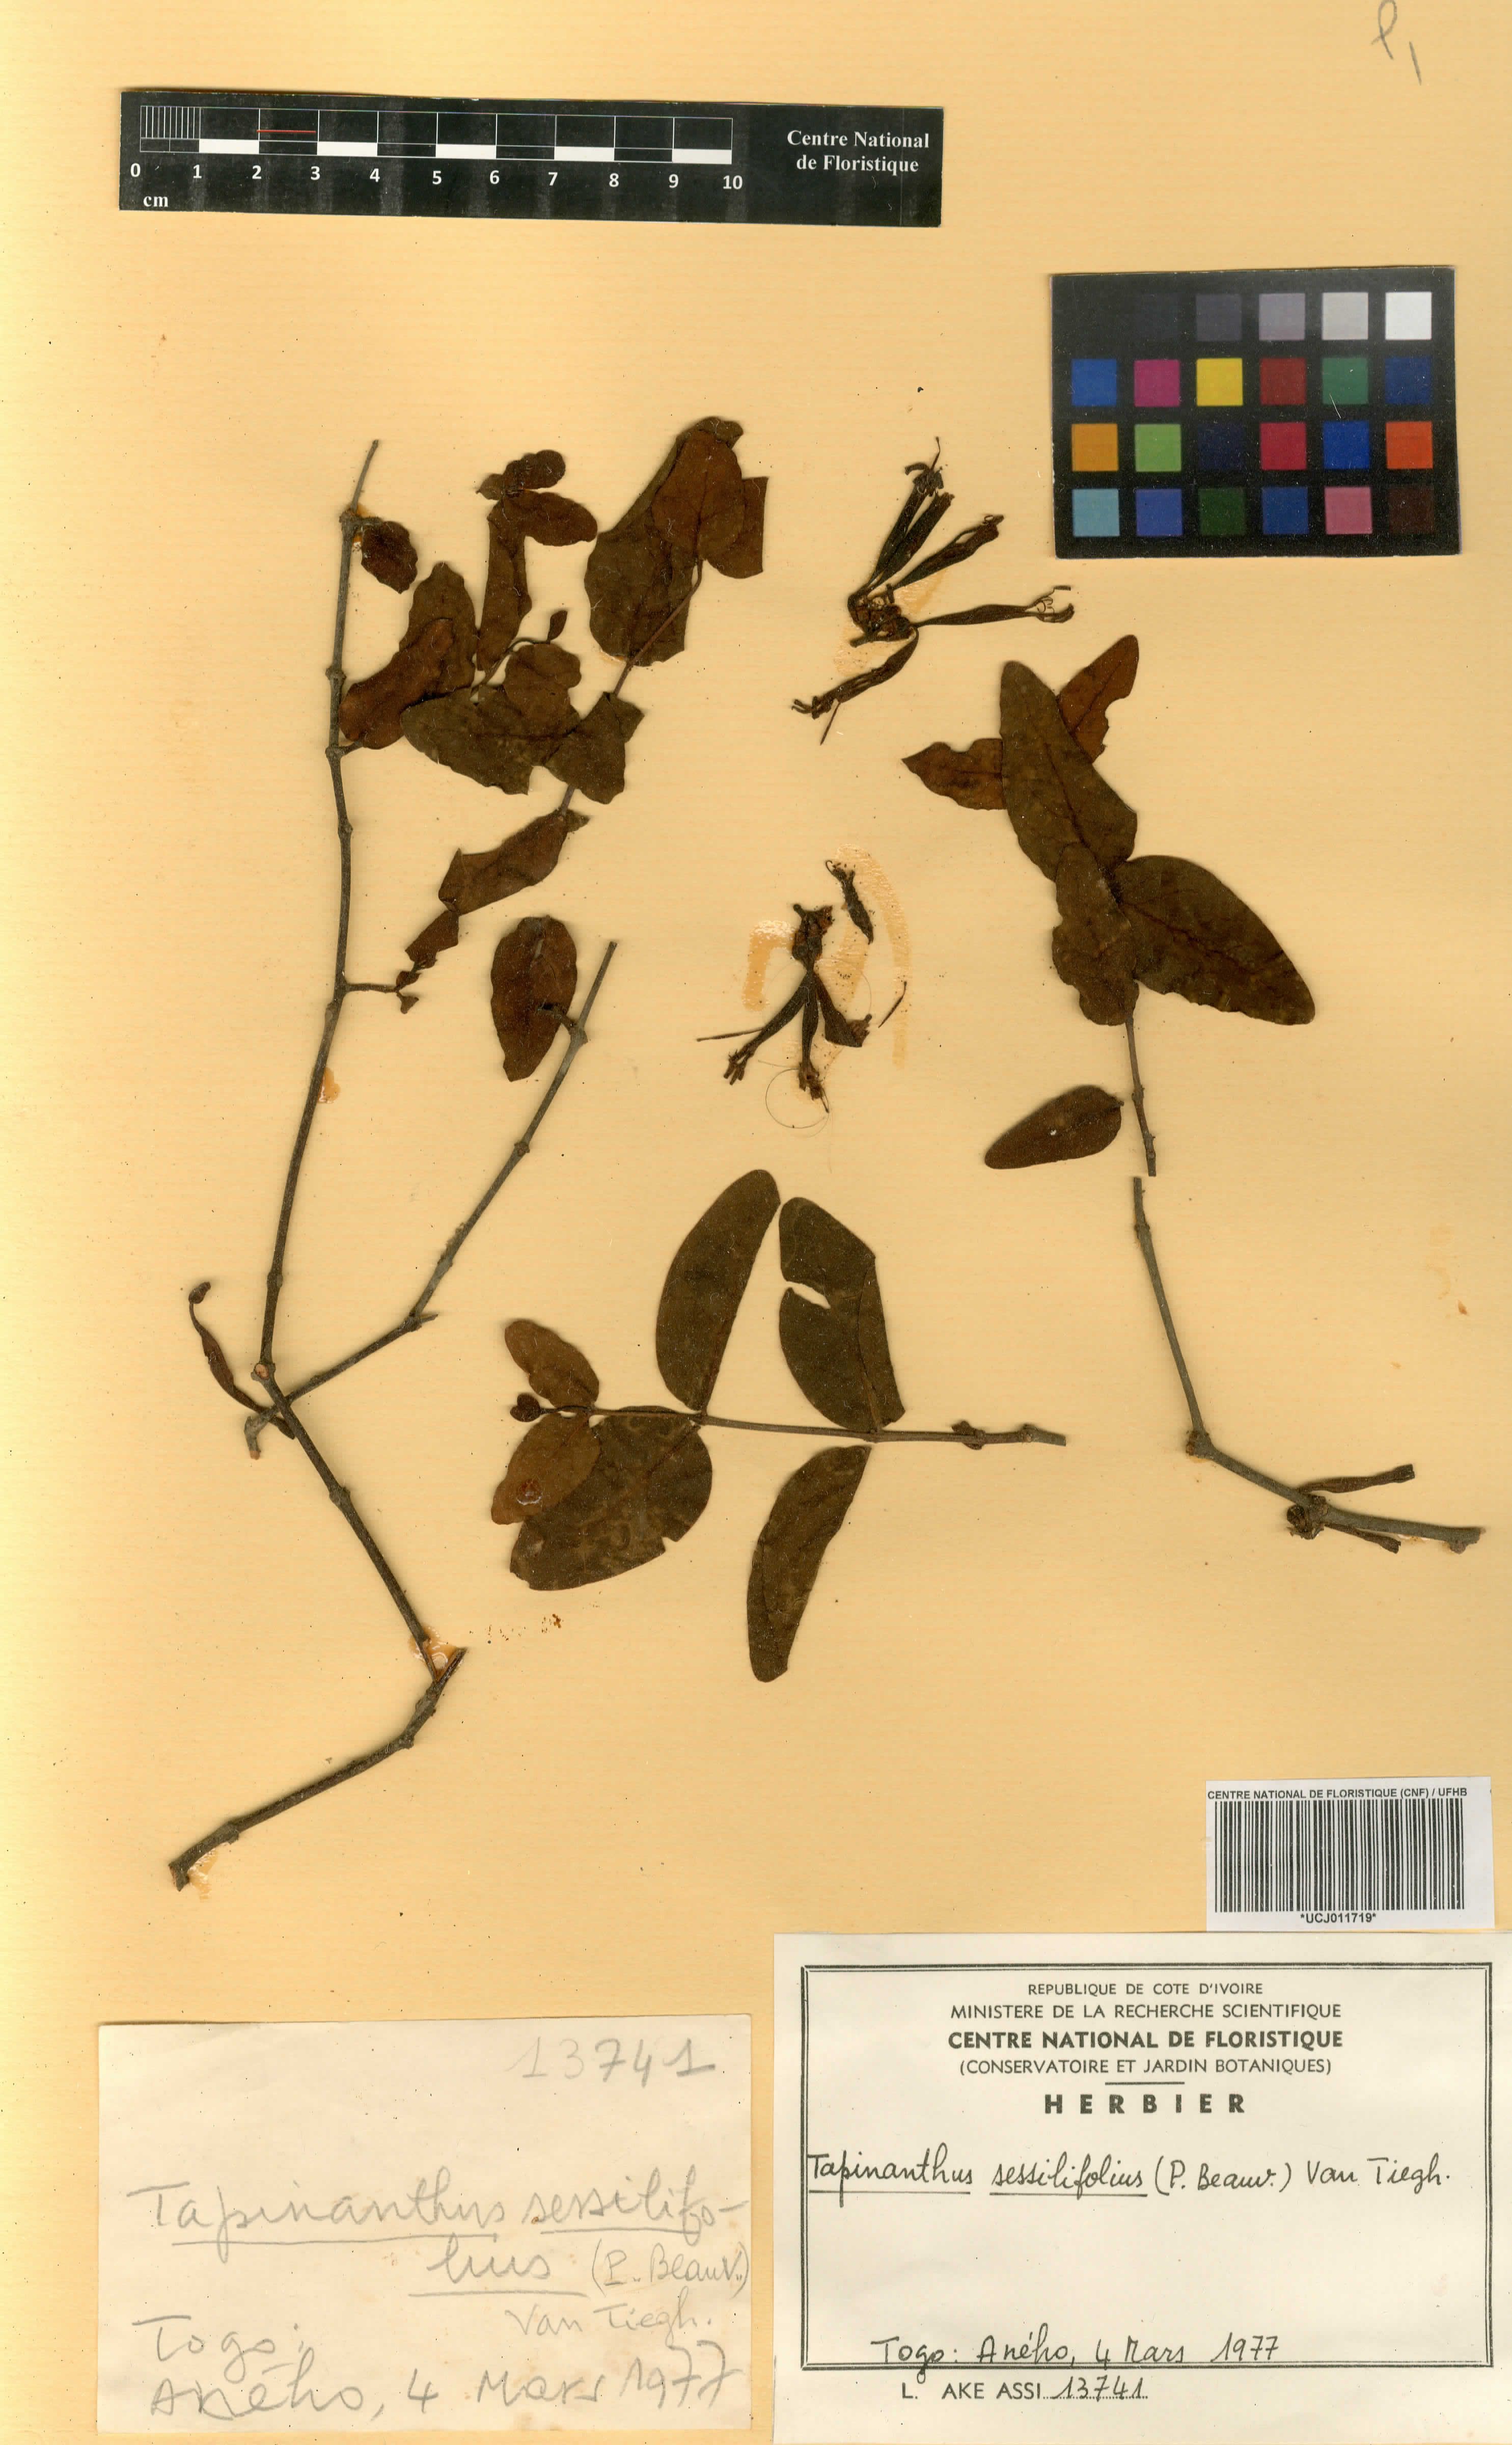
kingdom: Plantae
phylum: Tracheophyta
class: Magnoliopsida
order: Santalales
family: Loranthaceae
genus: Tapinanthus
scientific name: Tapinanthus sessilifolius
